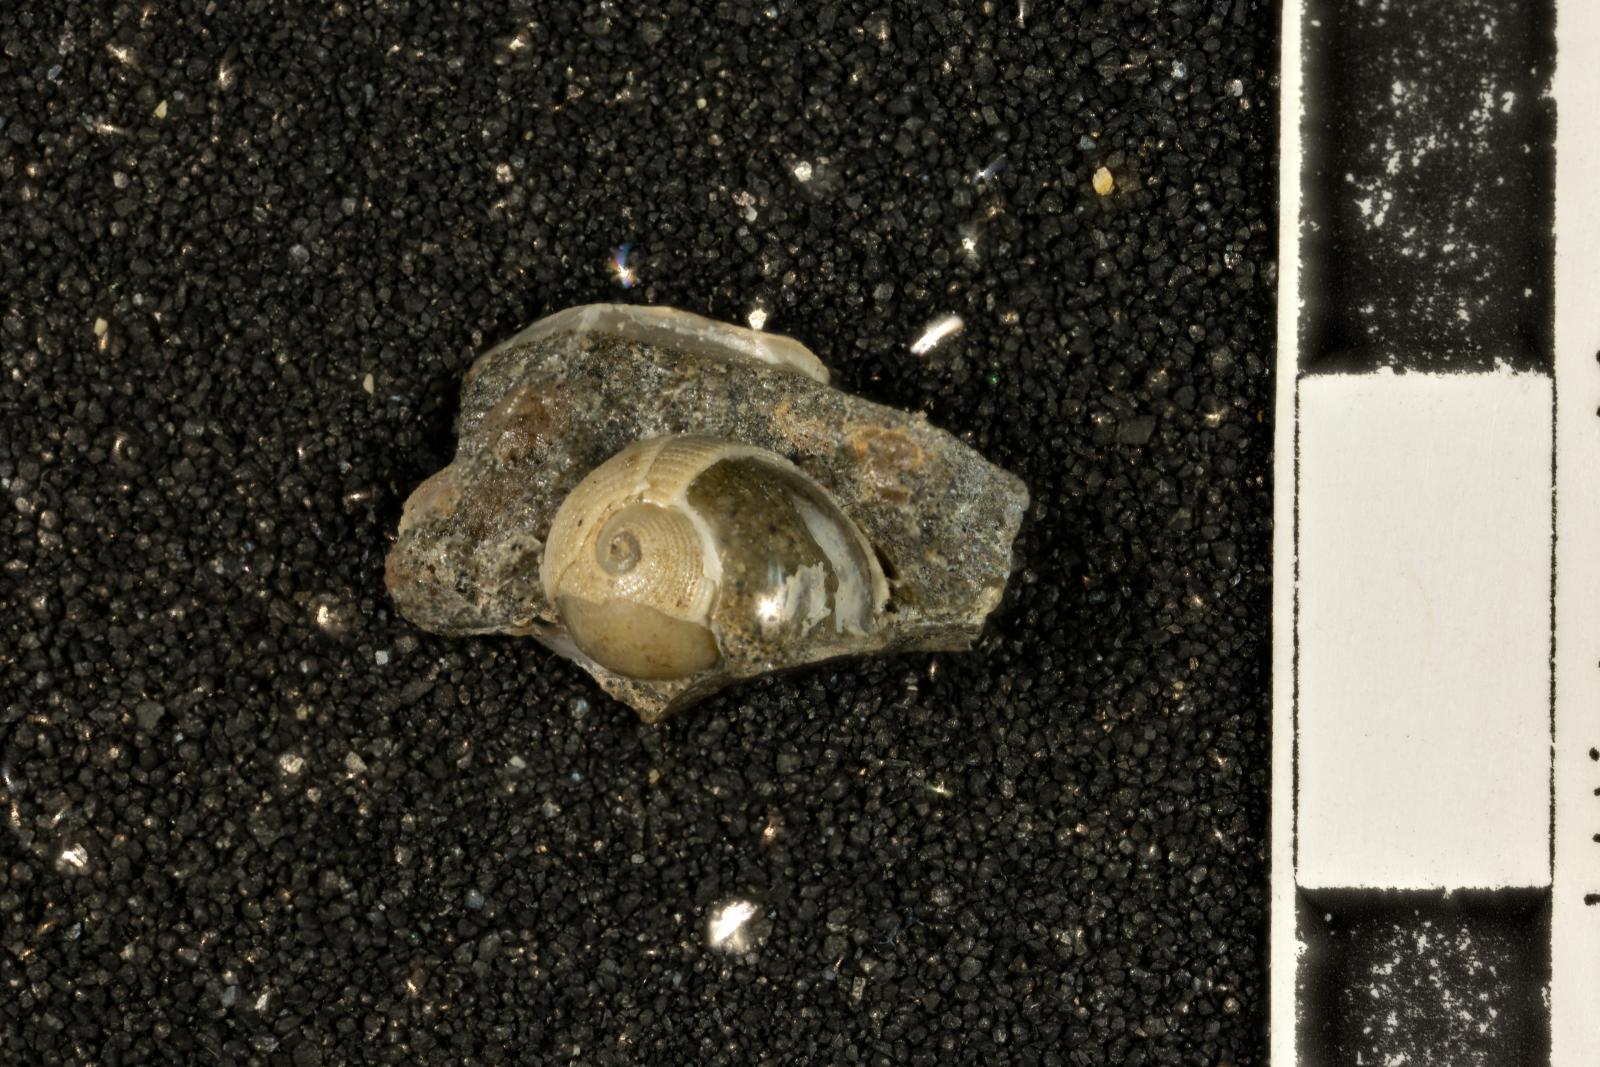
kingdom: Animalia
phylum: Mollusca
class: Gastropoda
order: Cephalaspidea
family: Ringiculidae
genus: Biplica
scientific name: Biplica heteroplicata
